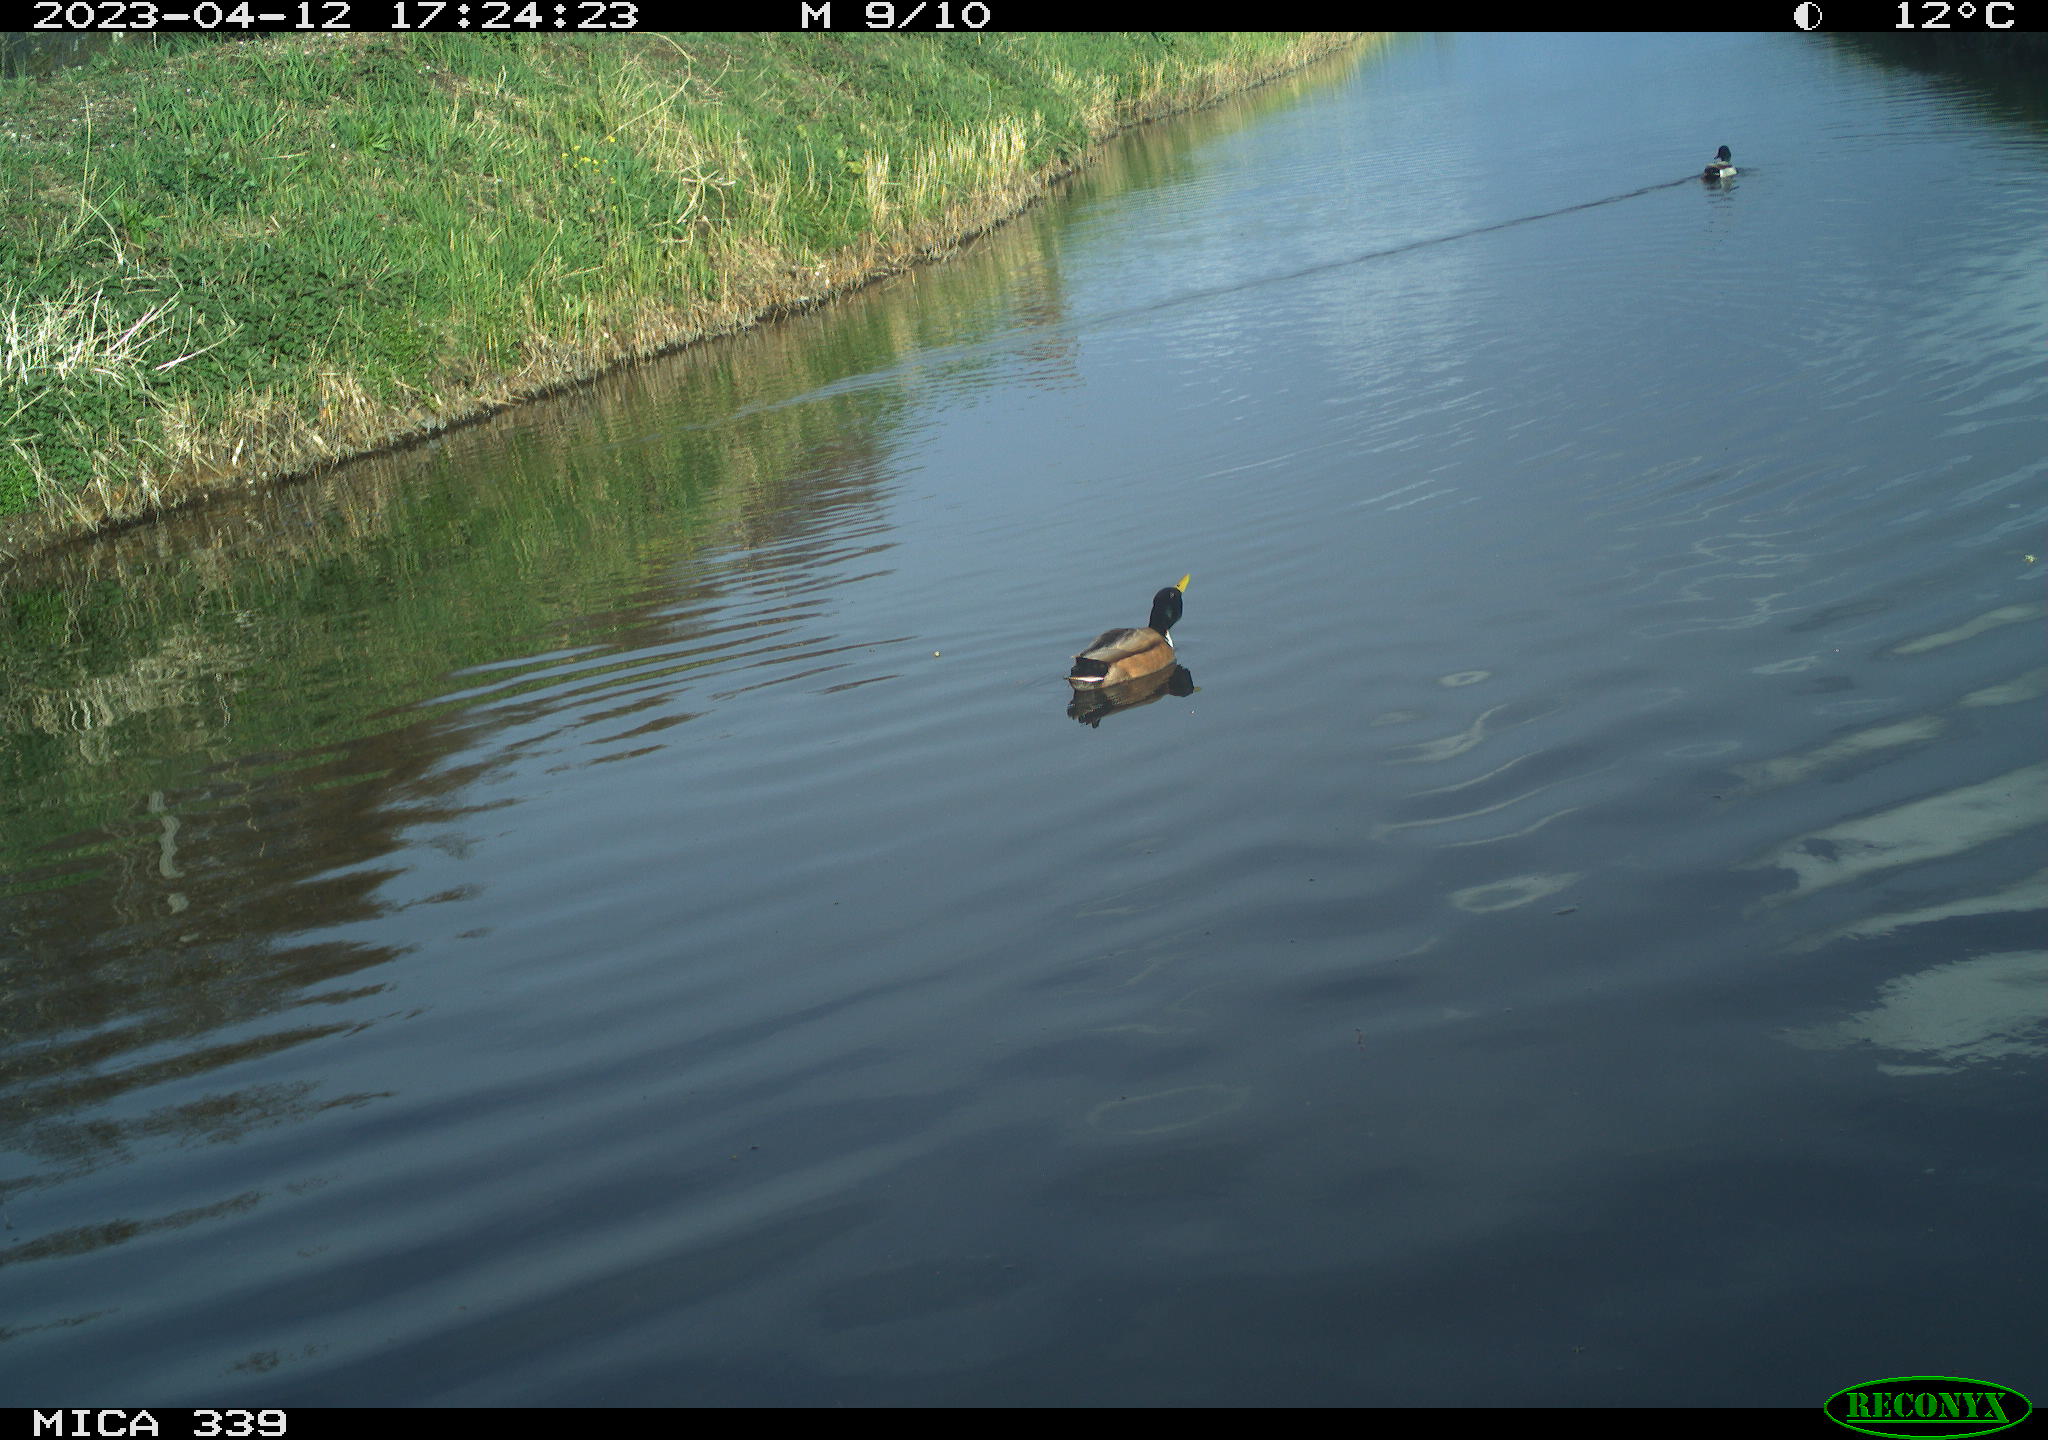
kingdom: Animalia
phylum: Chordata
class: Aves
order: Anseriformes
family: Anatidae
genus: Anas
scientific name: Anas
